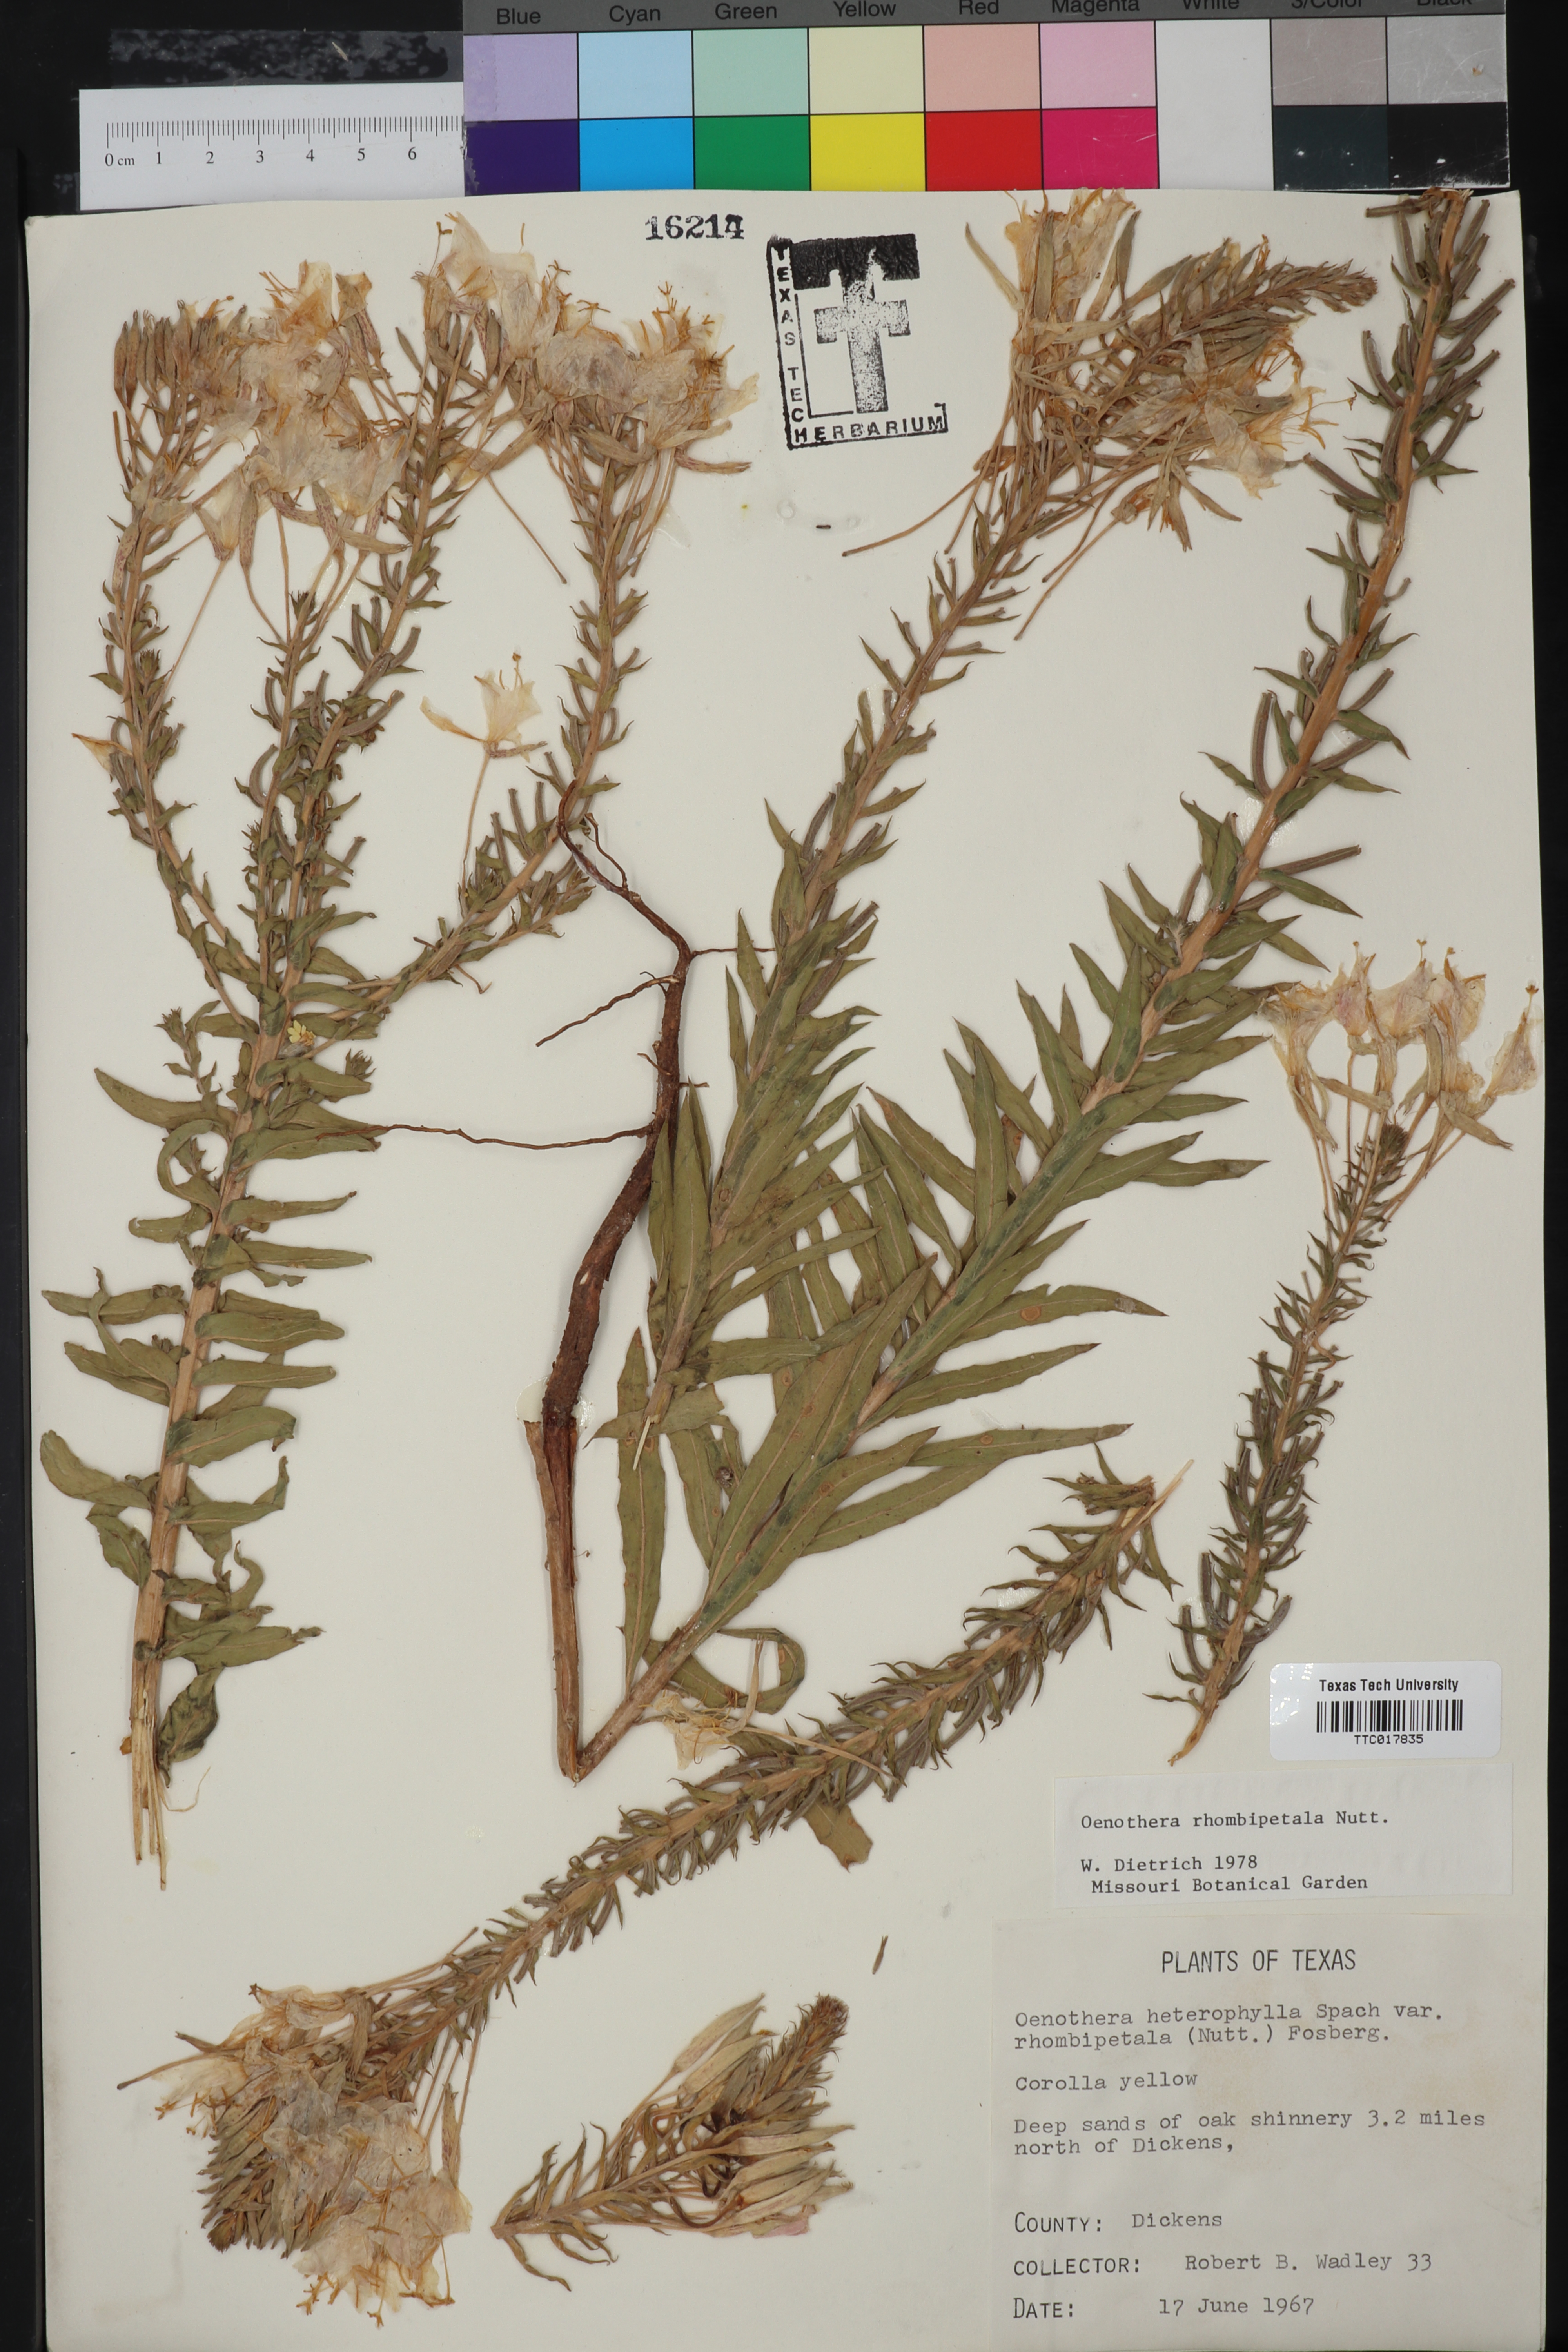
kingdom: Plantae
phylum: Tracheophyta
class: Magnoliopsida
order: Myrtales
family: Onagraceae
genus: Oenothera
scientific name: Oenothera rhombipetala
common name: Four-points evening-primrose
